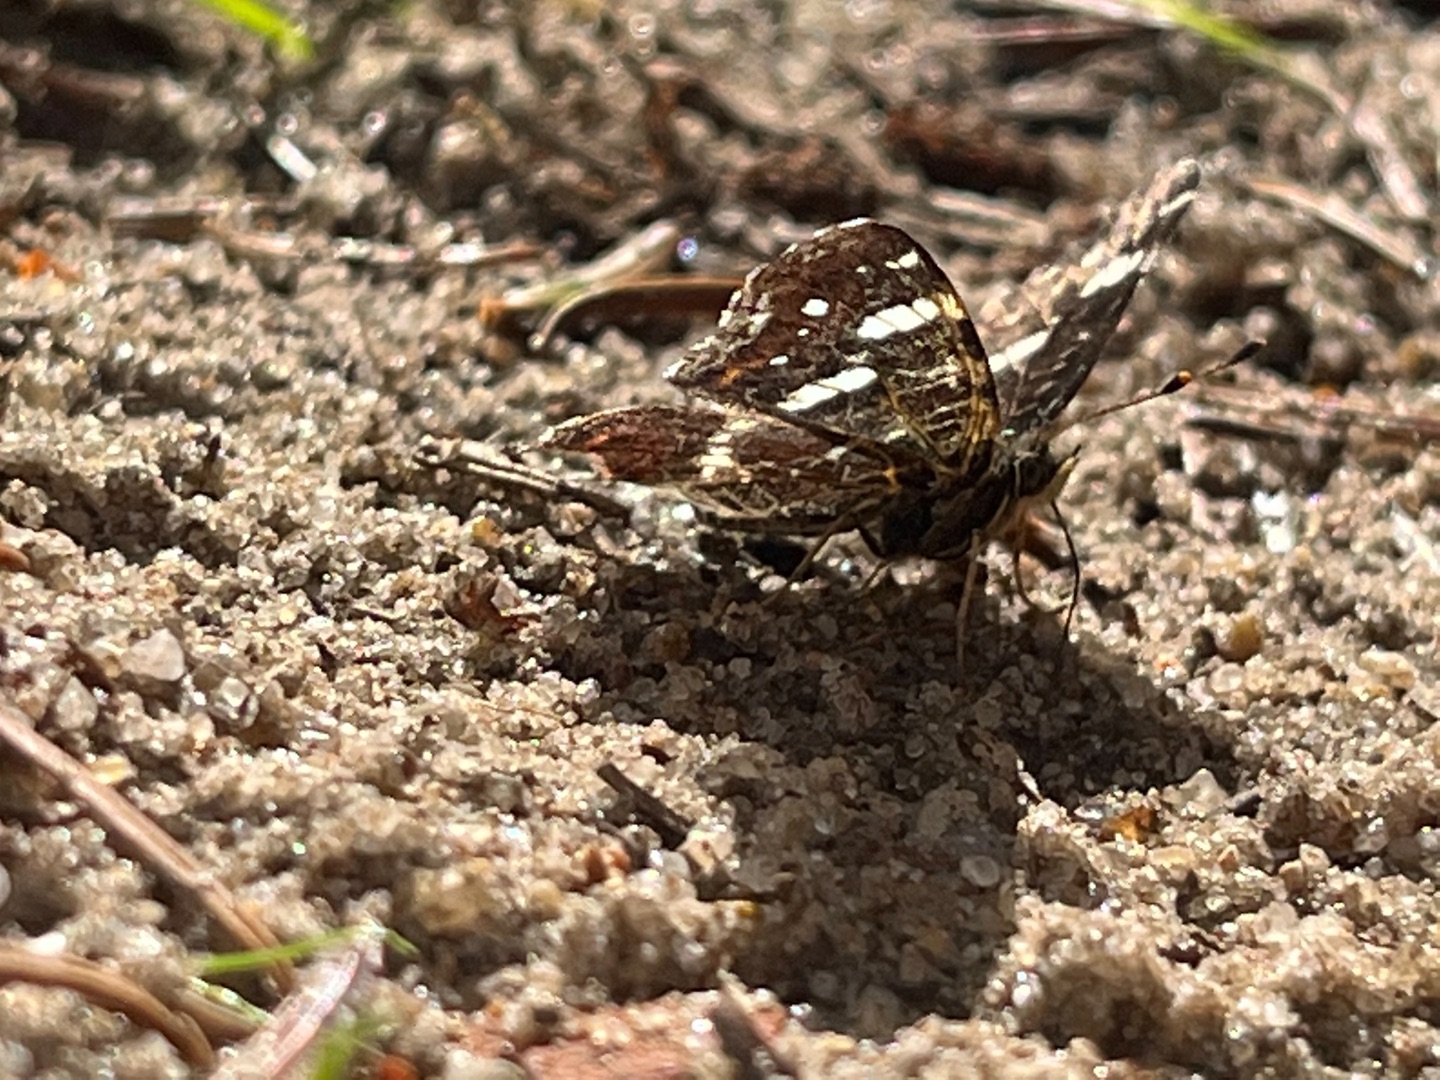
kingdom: Animalia
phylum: Arthropoda
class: Insecta
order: Lepidoptera
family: Nymphalidae
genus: Araschnia
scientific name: Araschnia levana
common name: Nældesommerfugl
